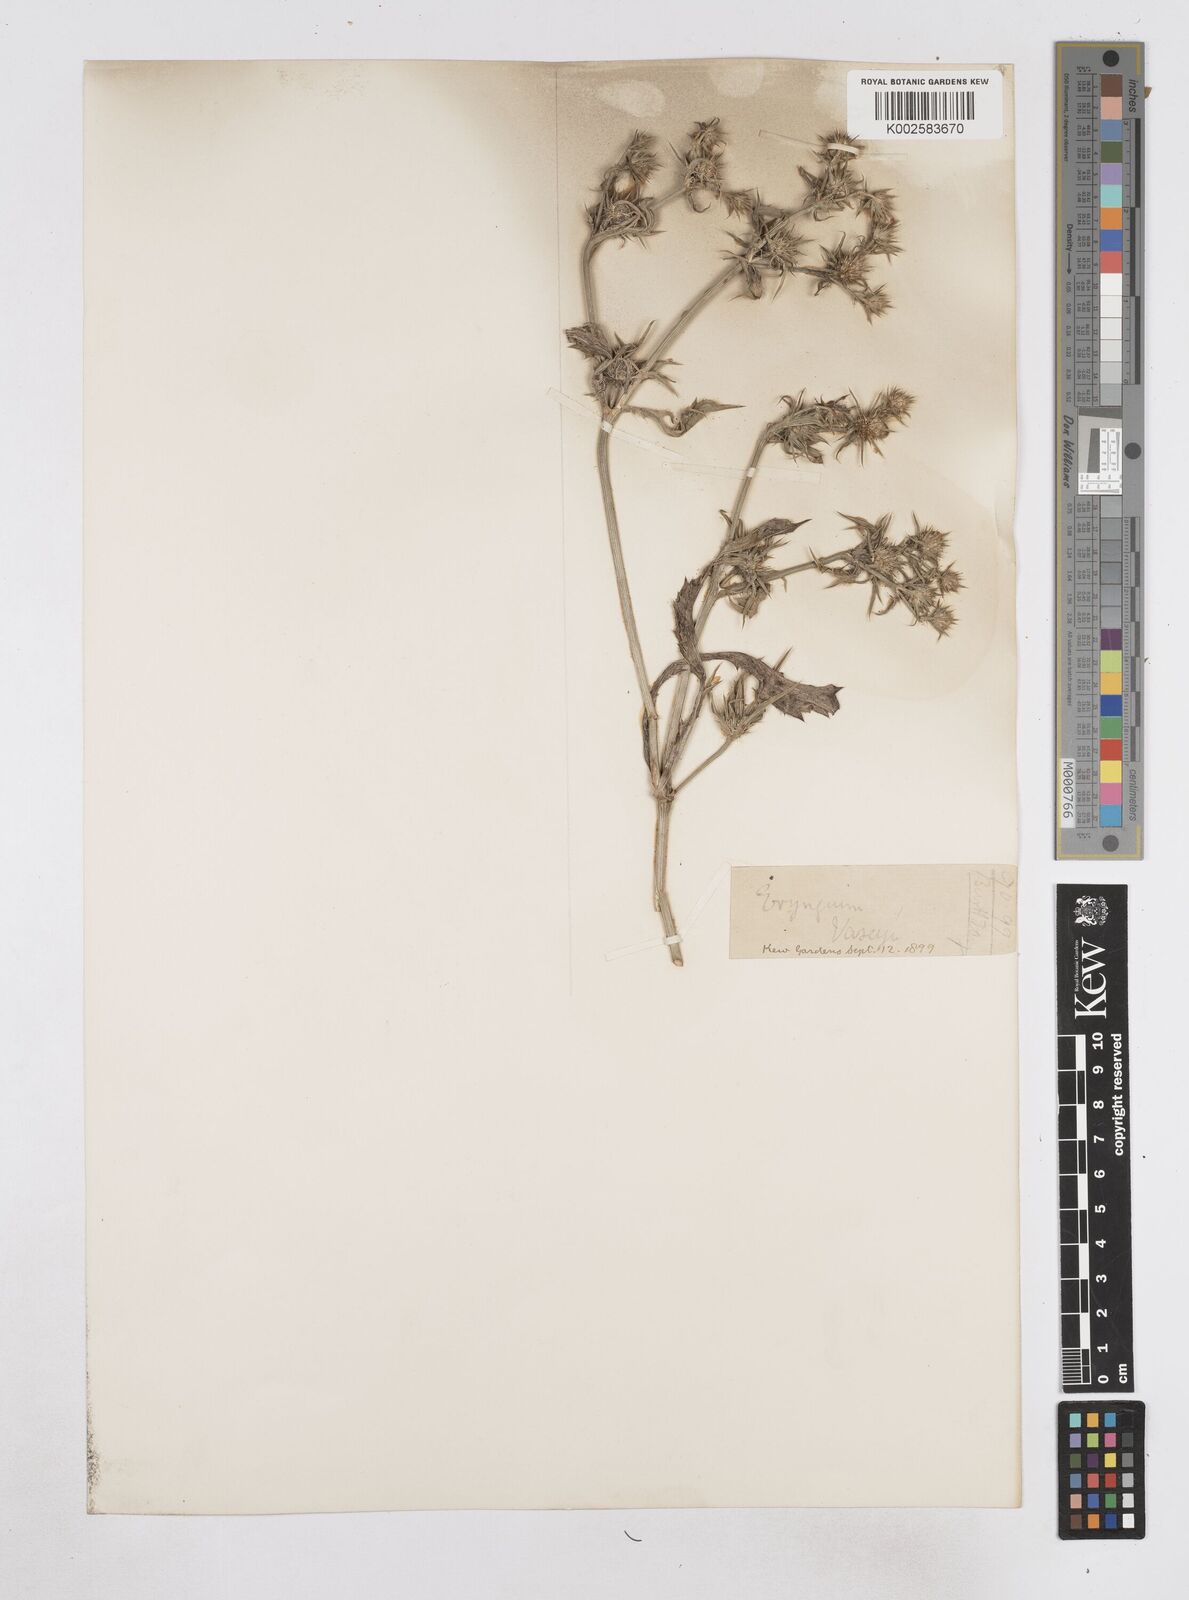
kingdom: Plantae
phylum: Tracheophyta
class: Magnoliopsida
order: Apiales
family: Apiaceae
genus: Eryngium
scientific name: Eryngium vaseyi
